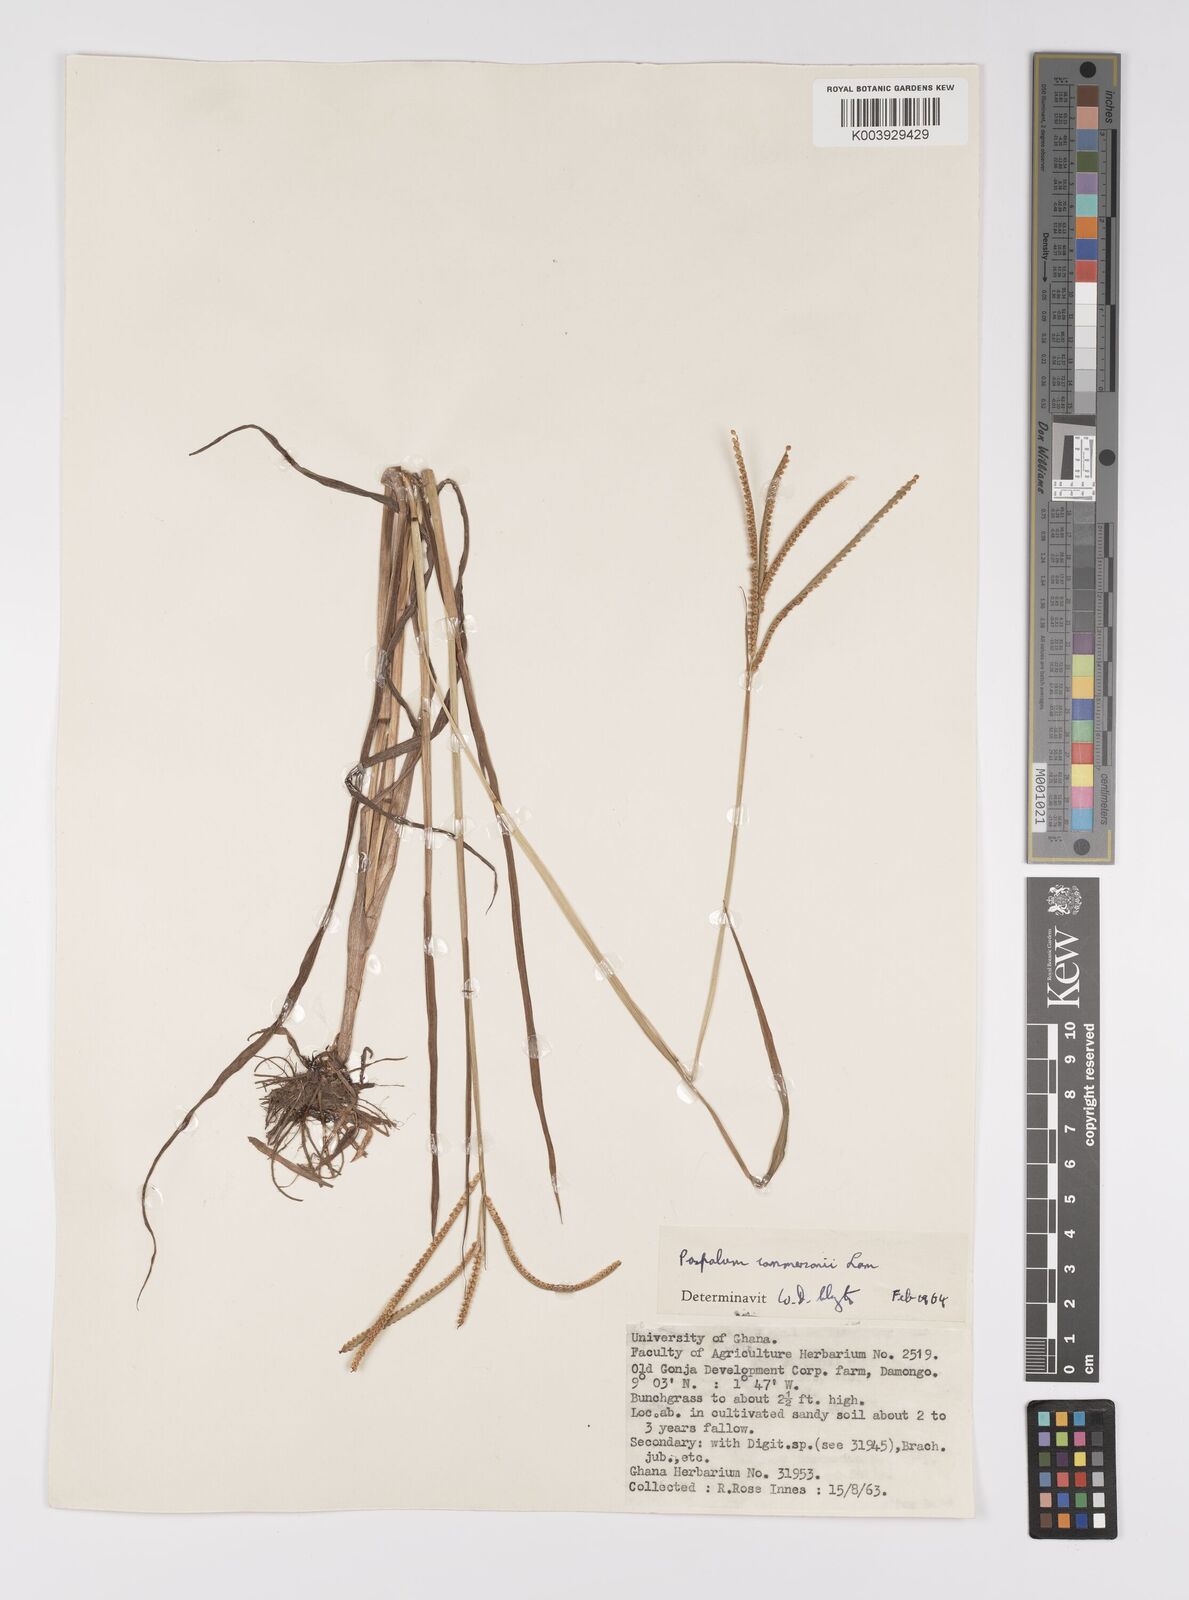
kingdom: Plantae
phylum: Tracheophyta
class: Liliopsida
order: Poales
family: Poaceae
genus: Paspalum
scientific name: Paspalum scrobiculatum
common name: Kodo millet
